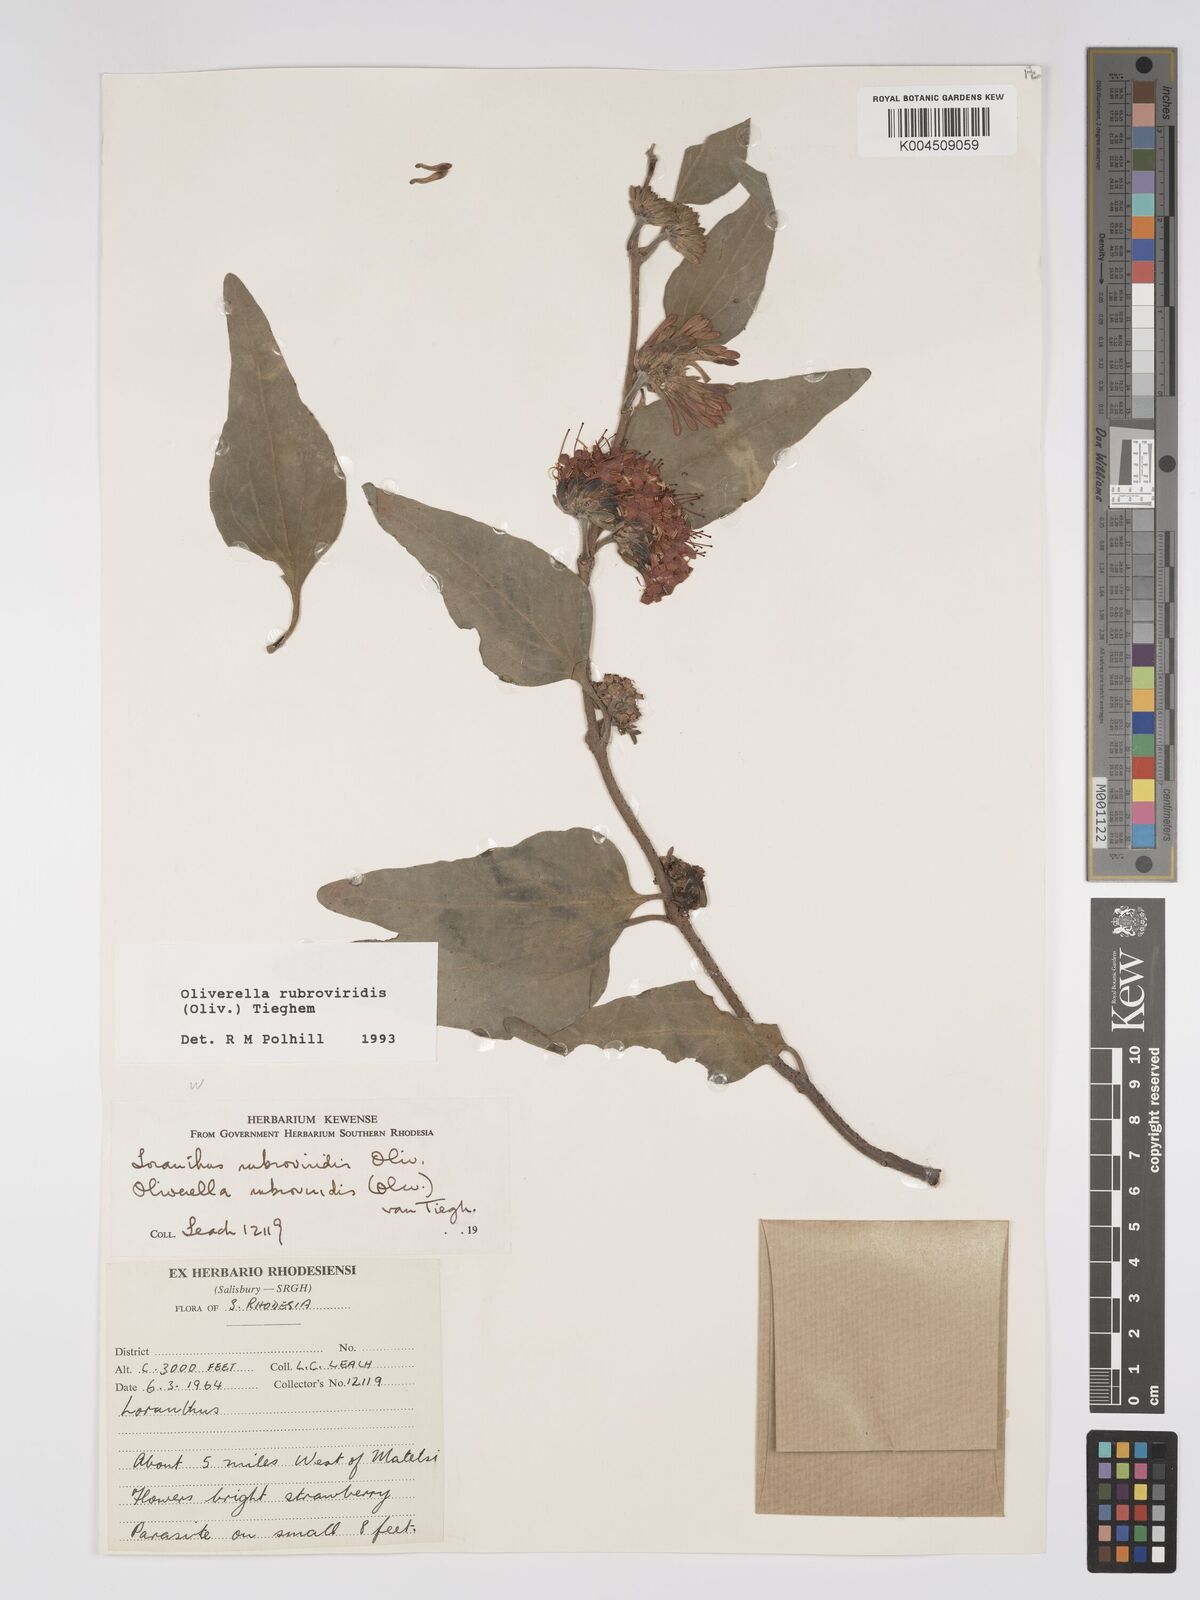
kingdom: Plantae
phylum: Tracheophyta
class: Magnoliopsida
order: Santalales
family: Loranthaceae
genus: Oliverella
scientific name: Oliverella rubroviridis
